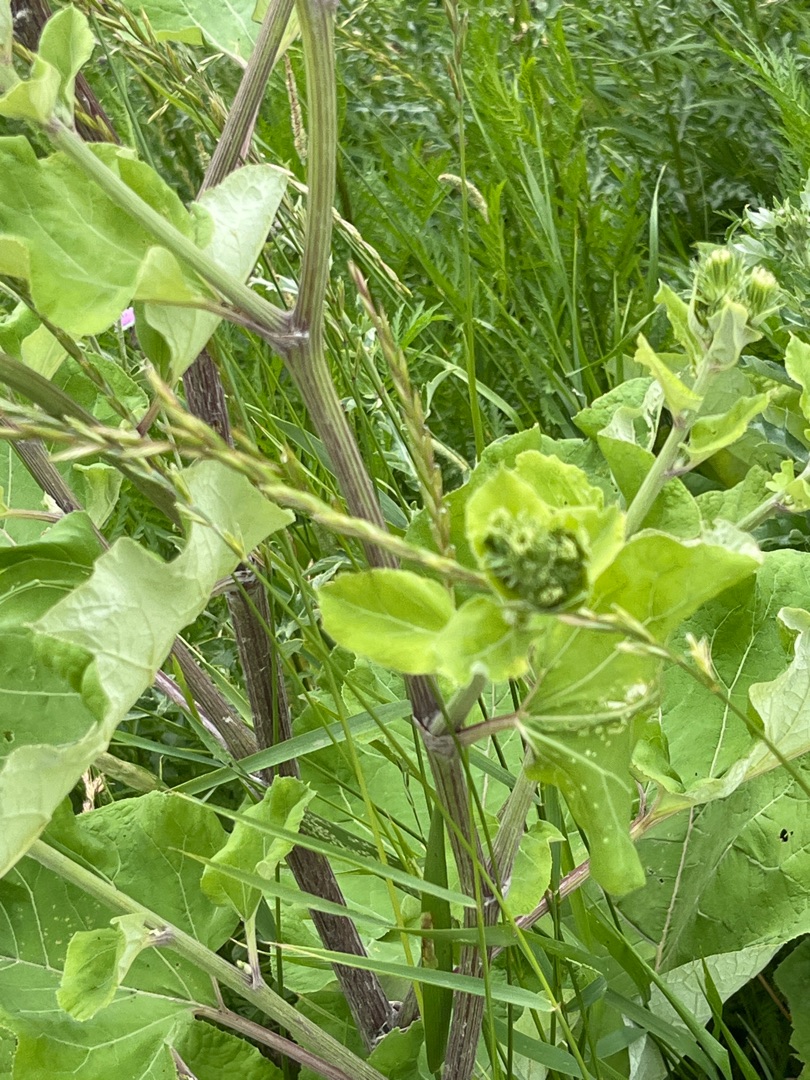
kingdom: Plantae
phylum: Tracheophyta
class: Magnoliopsida
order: Asterales
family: Asteraceae
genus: Arctium
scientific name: Arctium lappa
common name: Glat burre
